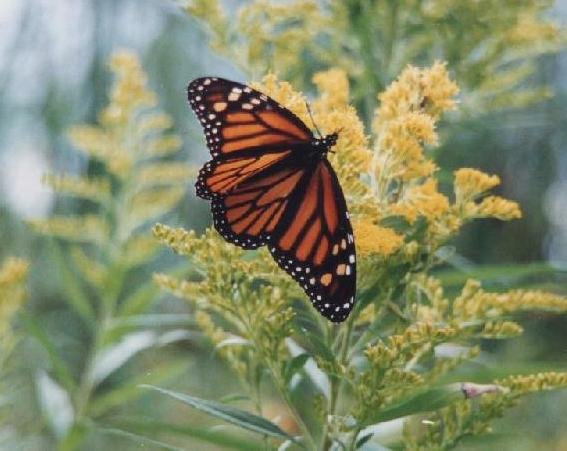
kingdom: Animalia
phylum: Arthropoda
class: Insecta
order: Lepidoptera
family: Nymphalidae
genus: Danaus
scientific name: Danaus plexippus
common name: Monarch
